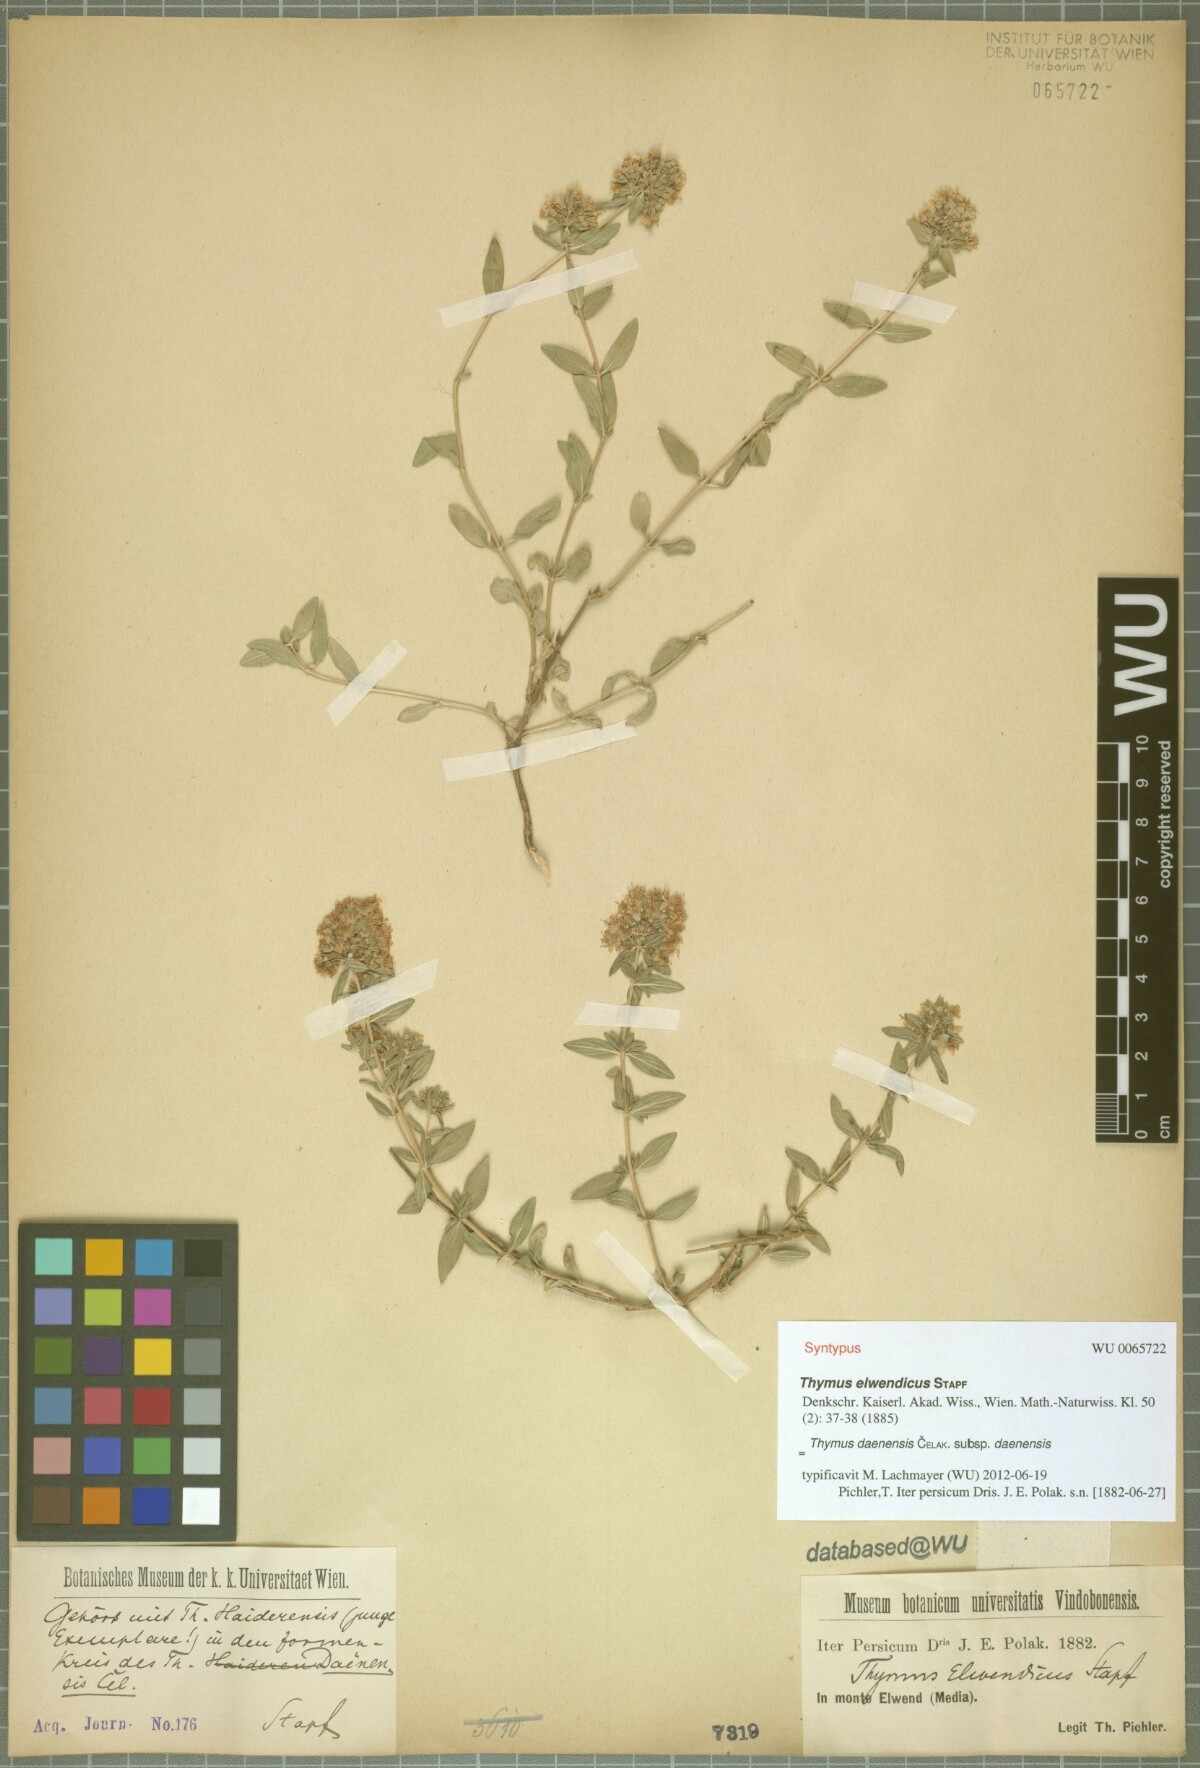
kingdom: Plantae
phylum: Tracheophyta
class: Magnoliopsida
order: Lamiales
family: Lamiaceae
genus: Thymus
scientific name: Thymus daenensis
